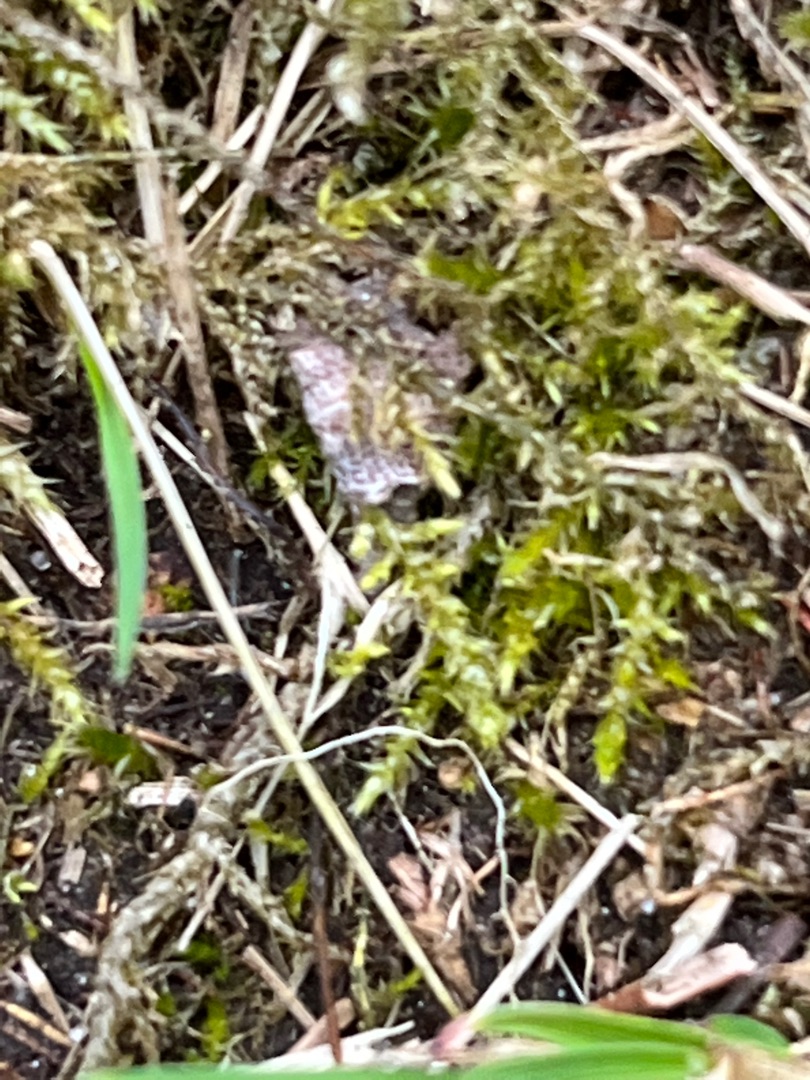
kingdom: Plantae
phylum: Bryophyta
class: Bryopsida
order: Hypnales
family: Brachytheciaceae
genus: Brachythecium
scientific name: Brachythecium rutabulum
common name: Almindelig kortkapsel
